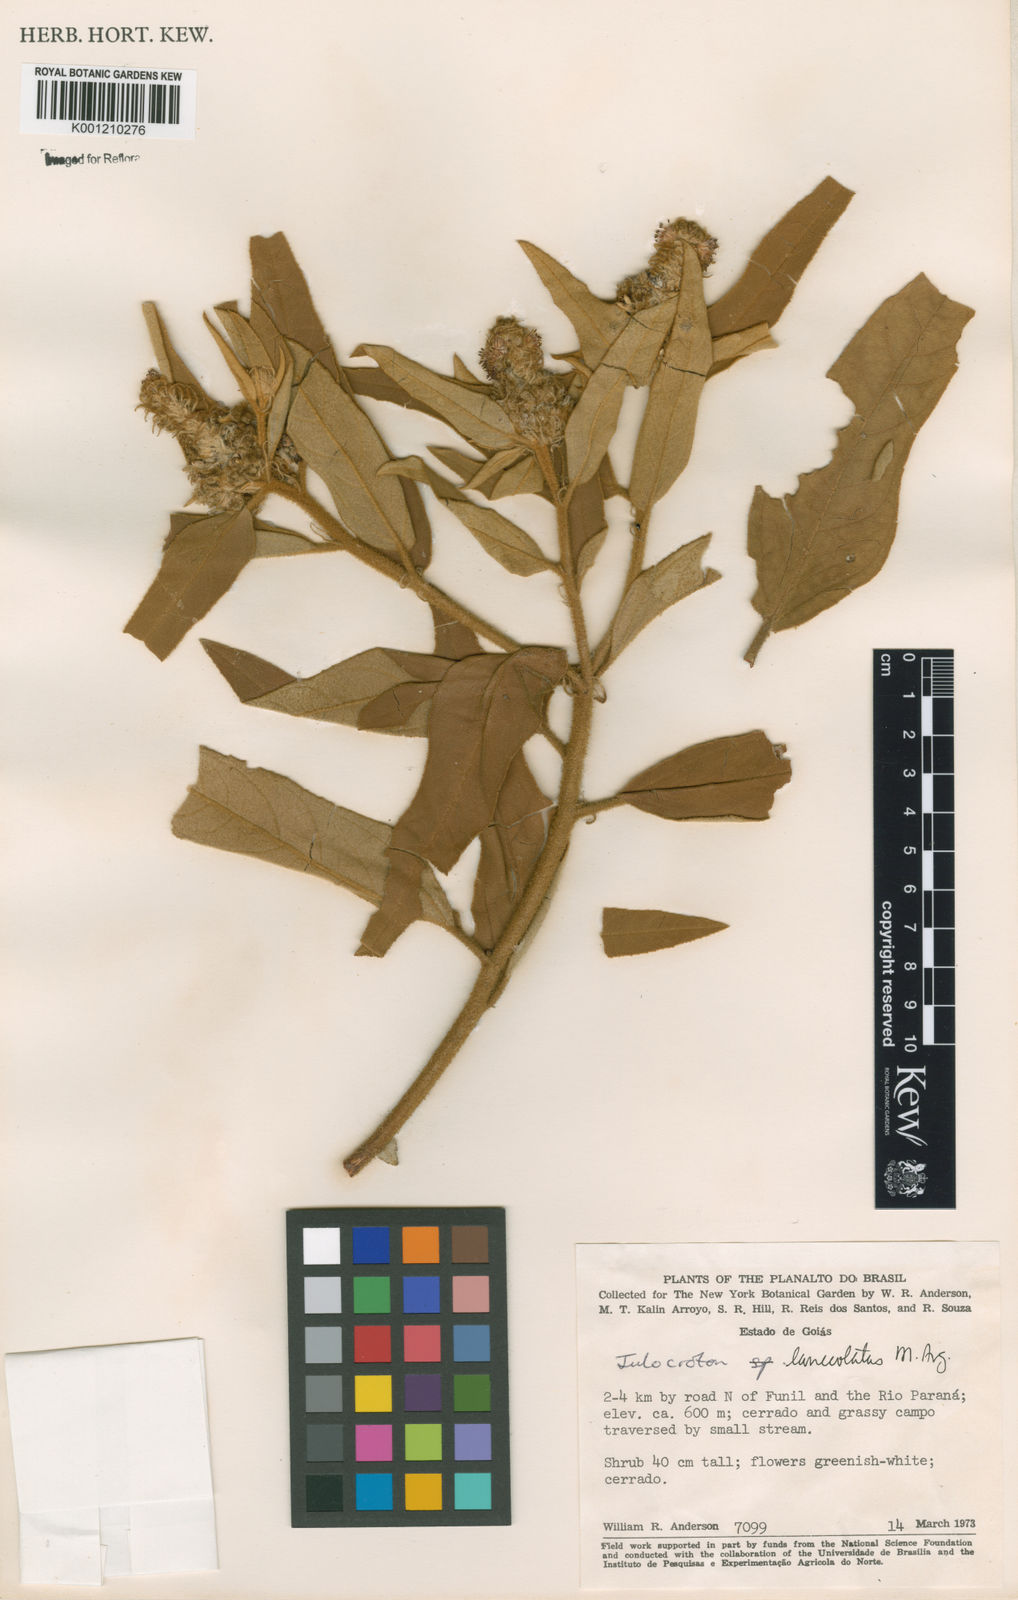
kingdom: Plantae
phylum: Tracheophyta
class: Magnoliopsida
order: Malpighiales
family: Euphorbiaceae
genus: Croton
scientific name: Croton
